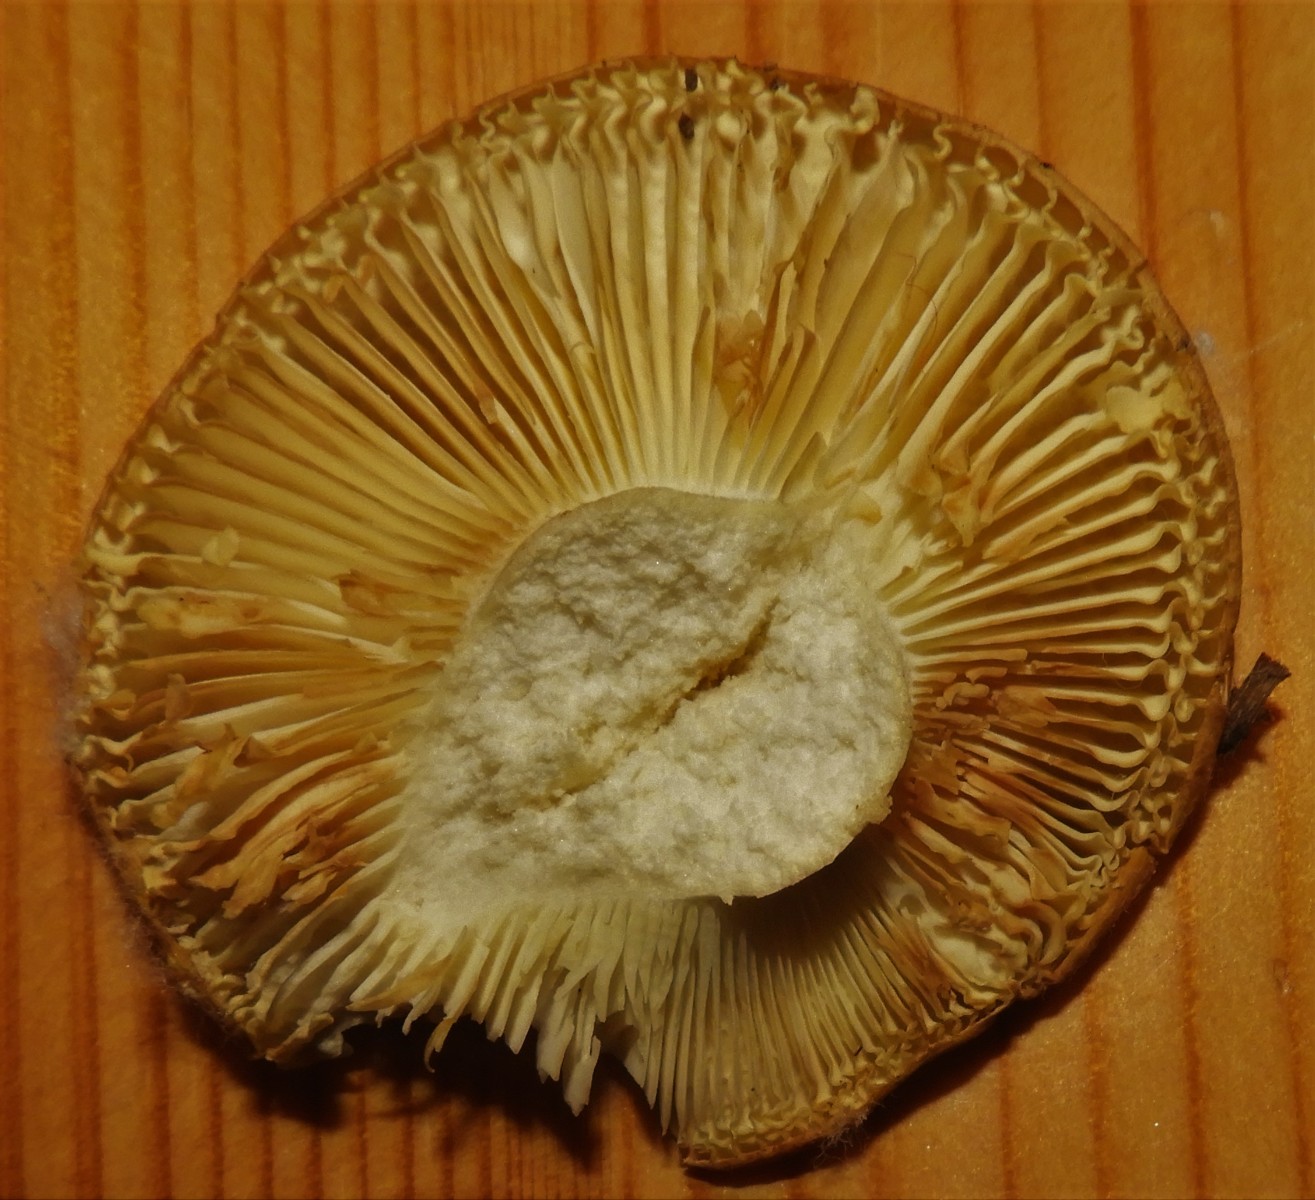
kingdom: Fungi
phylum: Basidiomycota
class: Agaricomycetes
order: Russulales
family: Russulaceae
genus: Russula
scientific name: Russula
